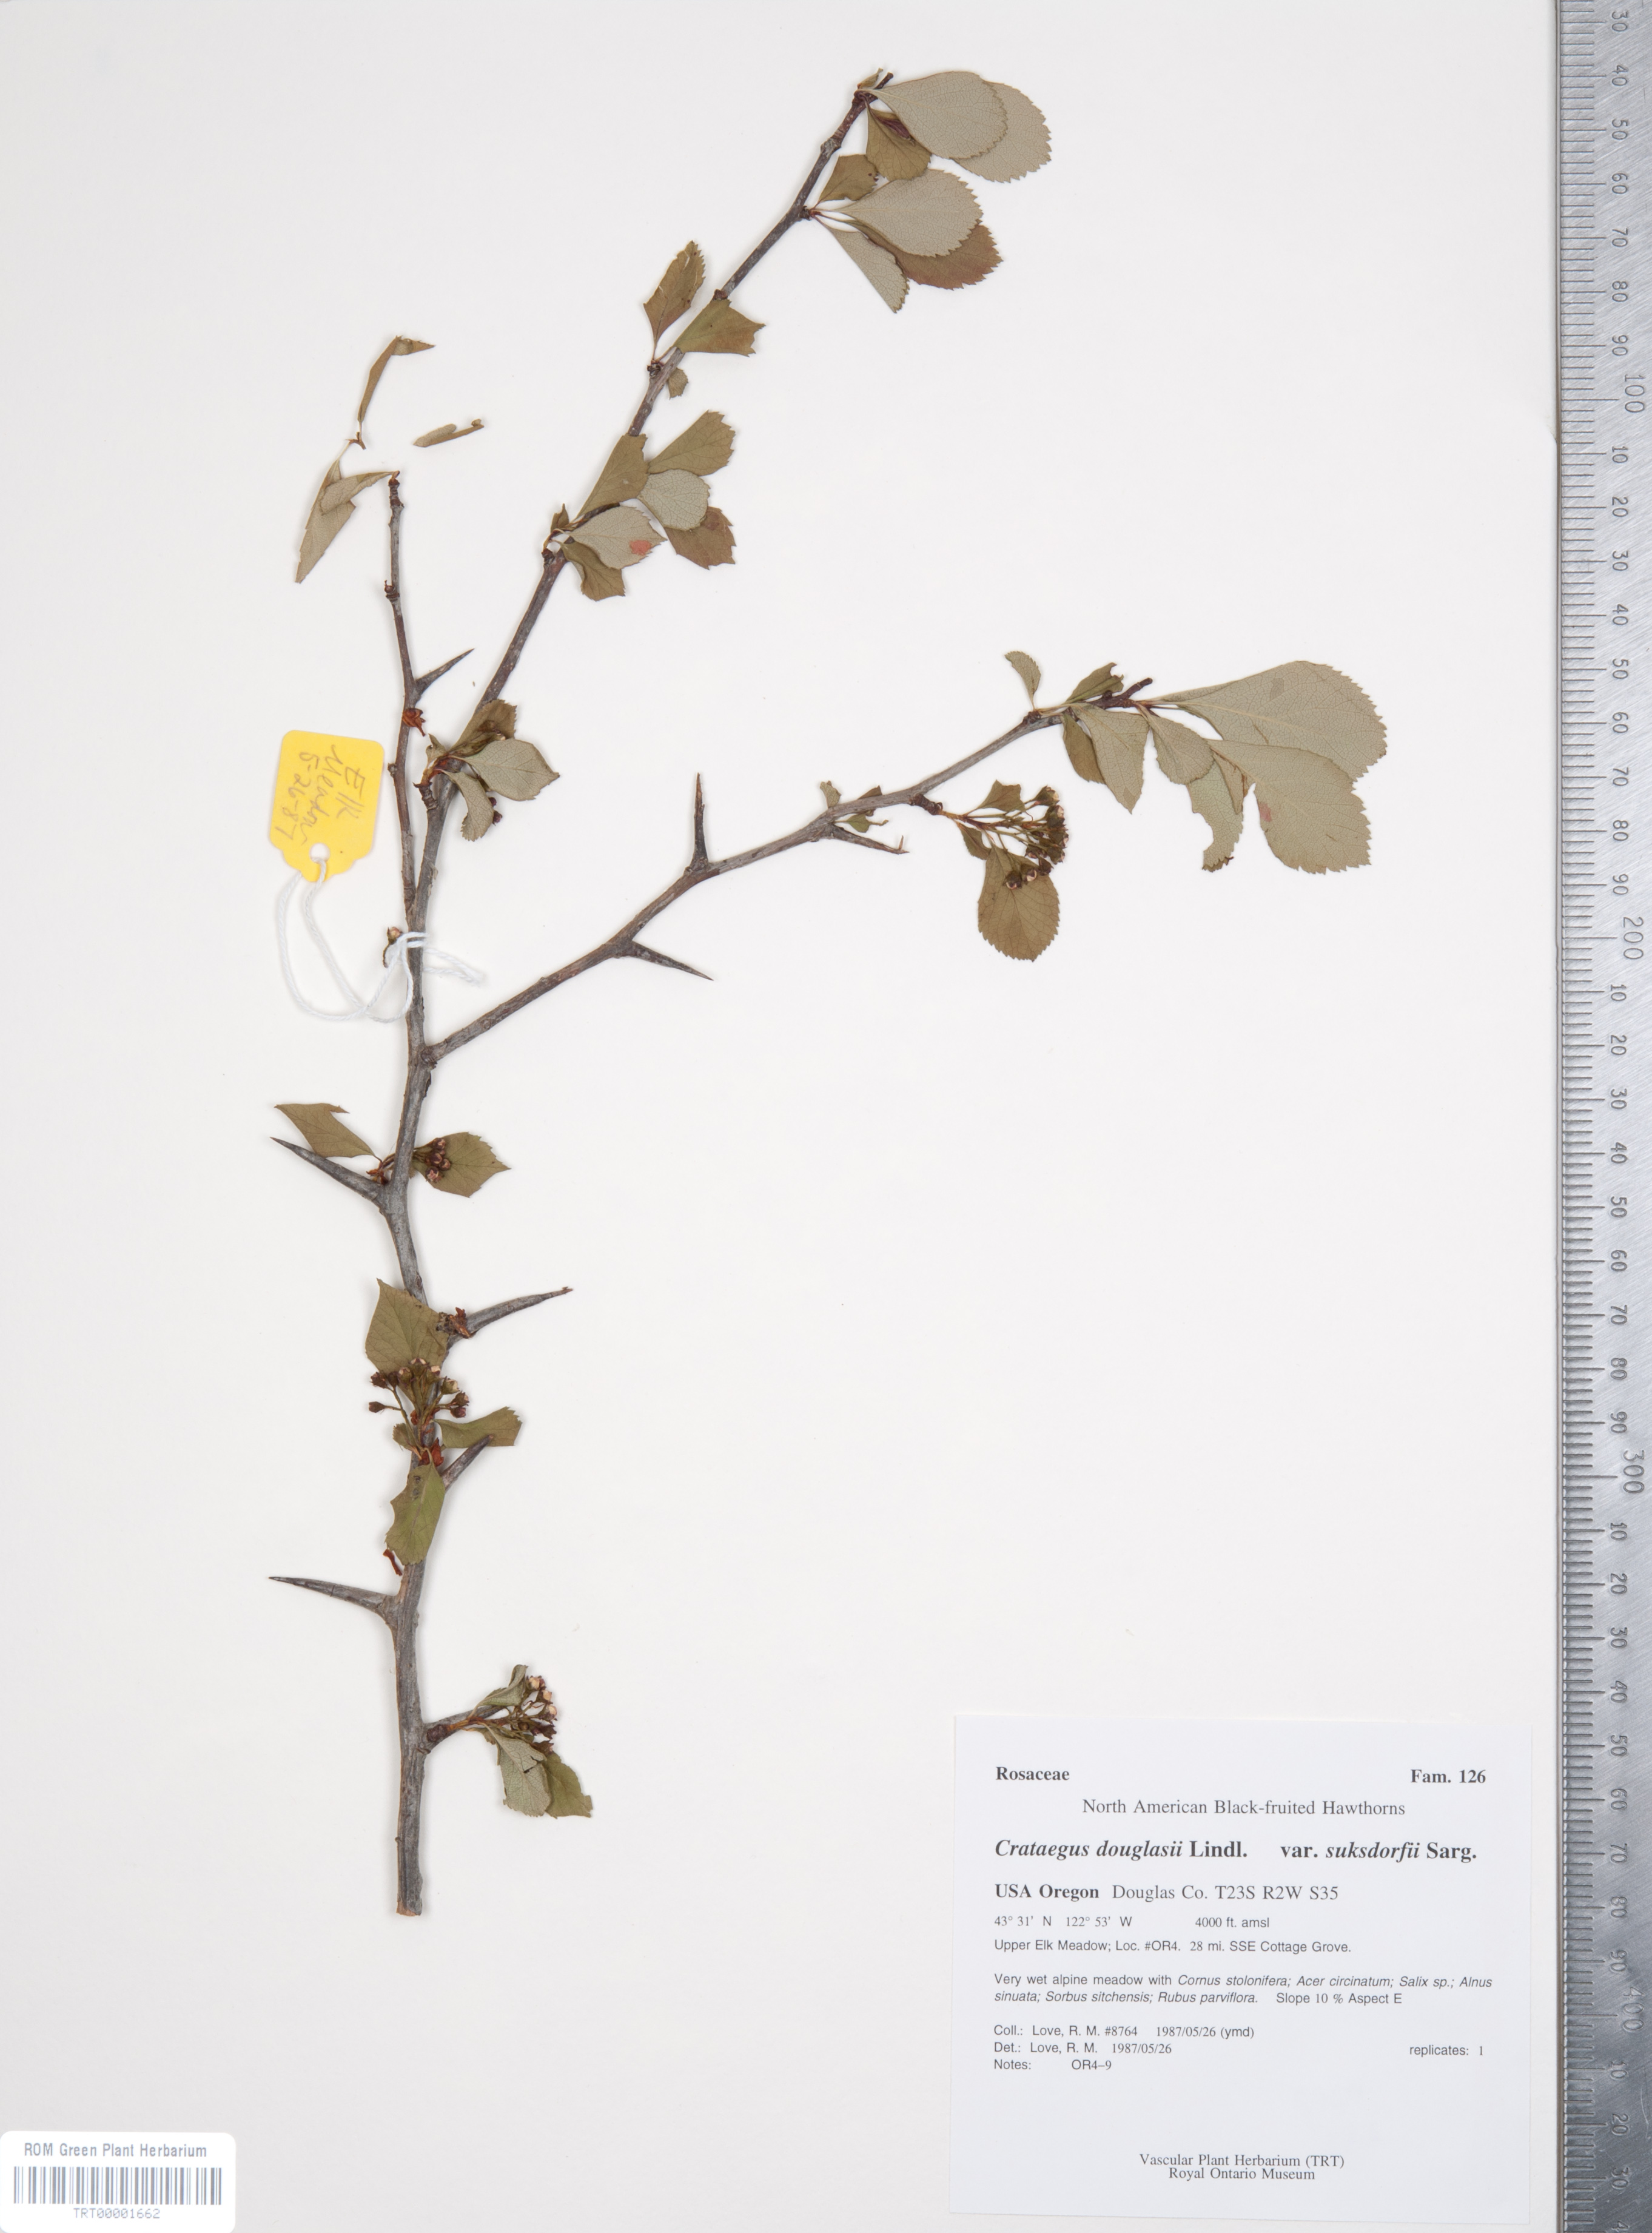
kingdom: Plantae
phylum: Tracheophyta
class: Magnoliopsida
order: Rosales
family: Rosaceae
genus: Crataegus
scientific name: Crataegus gaylussacia
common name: Huckleberry hawthorn
